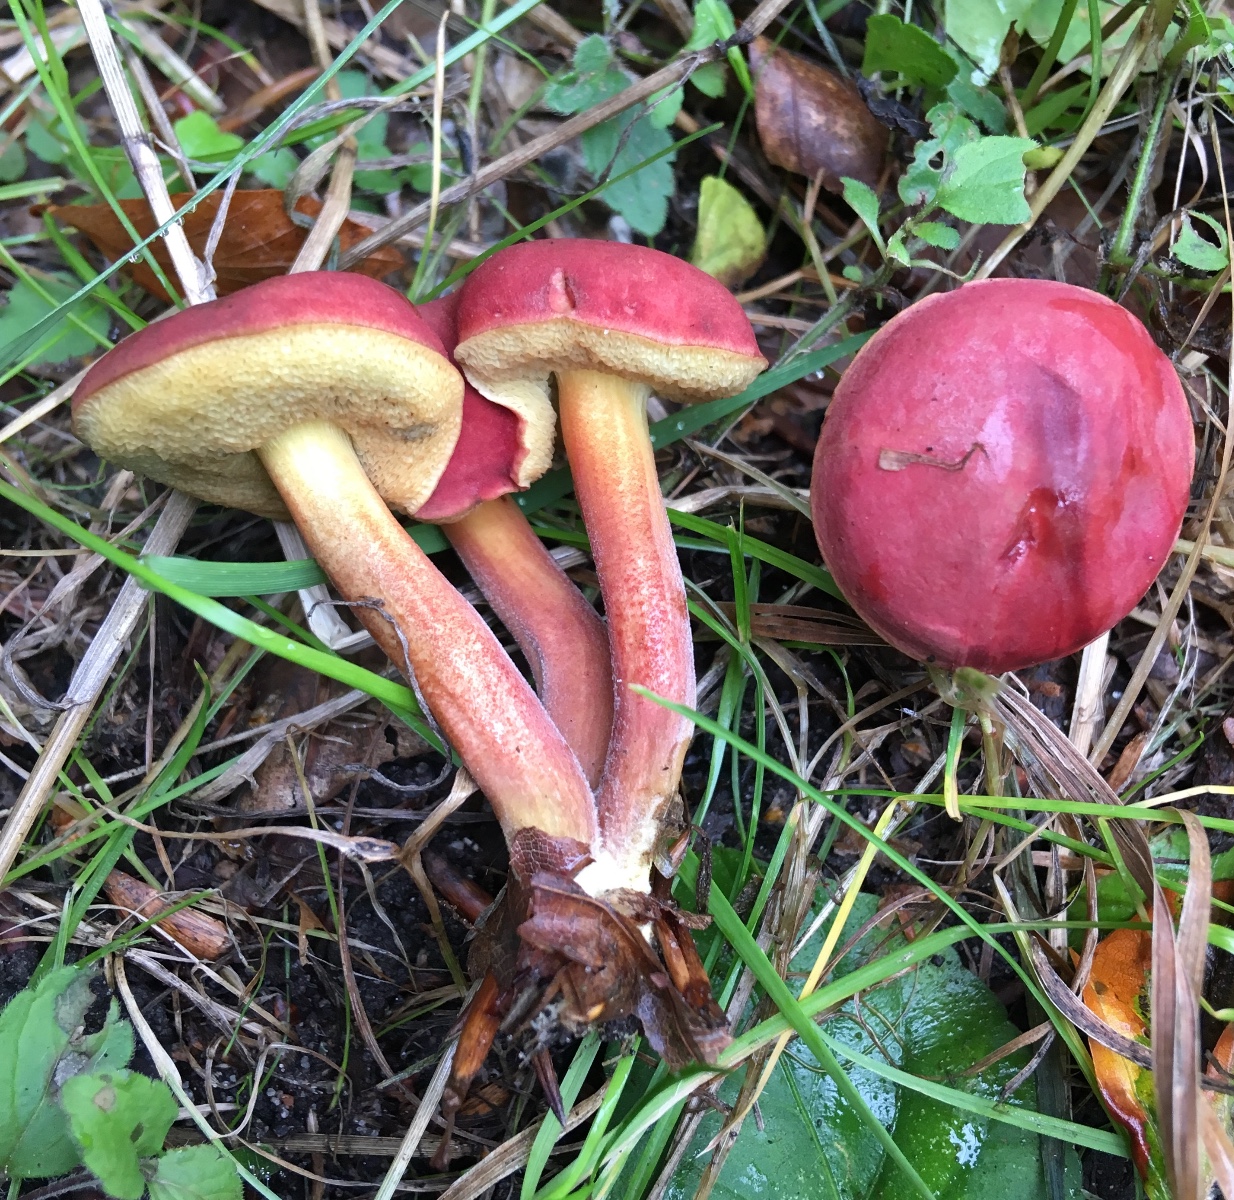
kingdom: Fungi
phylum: Basidiomycota
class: Agaricomycetes
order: Boletales
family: Boletaceae
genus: Hortiboletus
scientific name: Hortiboletus rubellus
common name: blodrød rørhat
